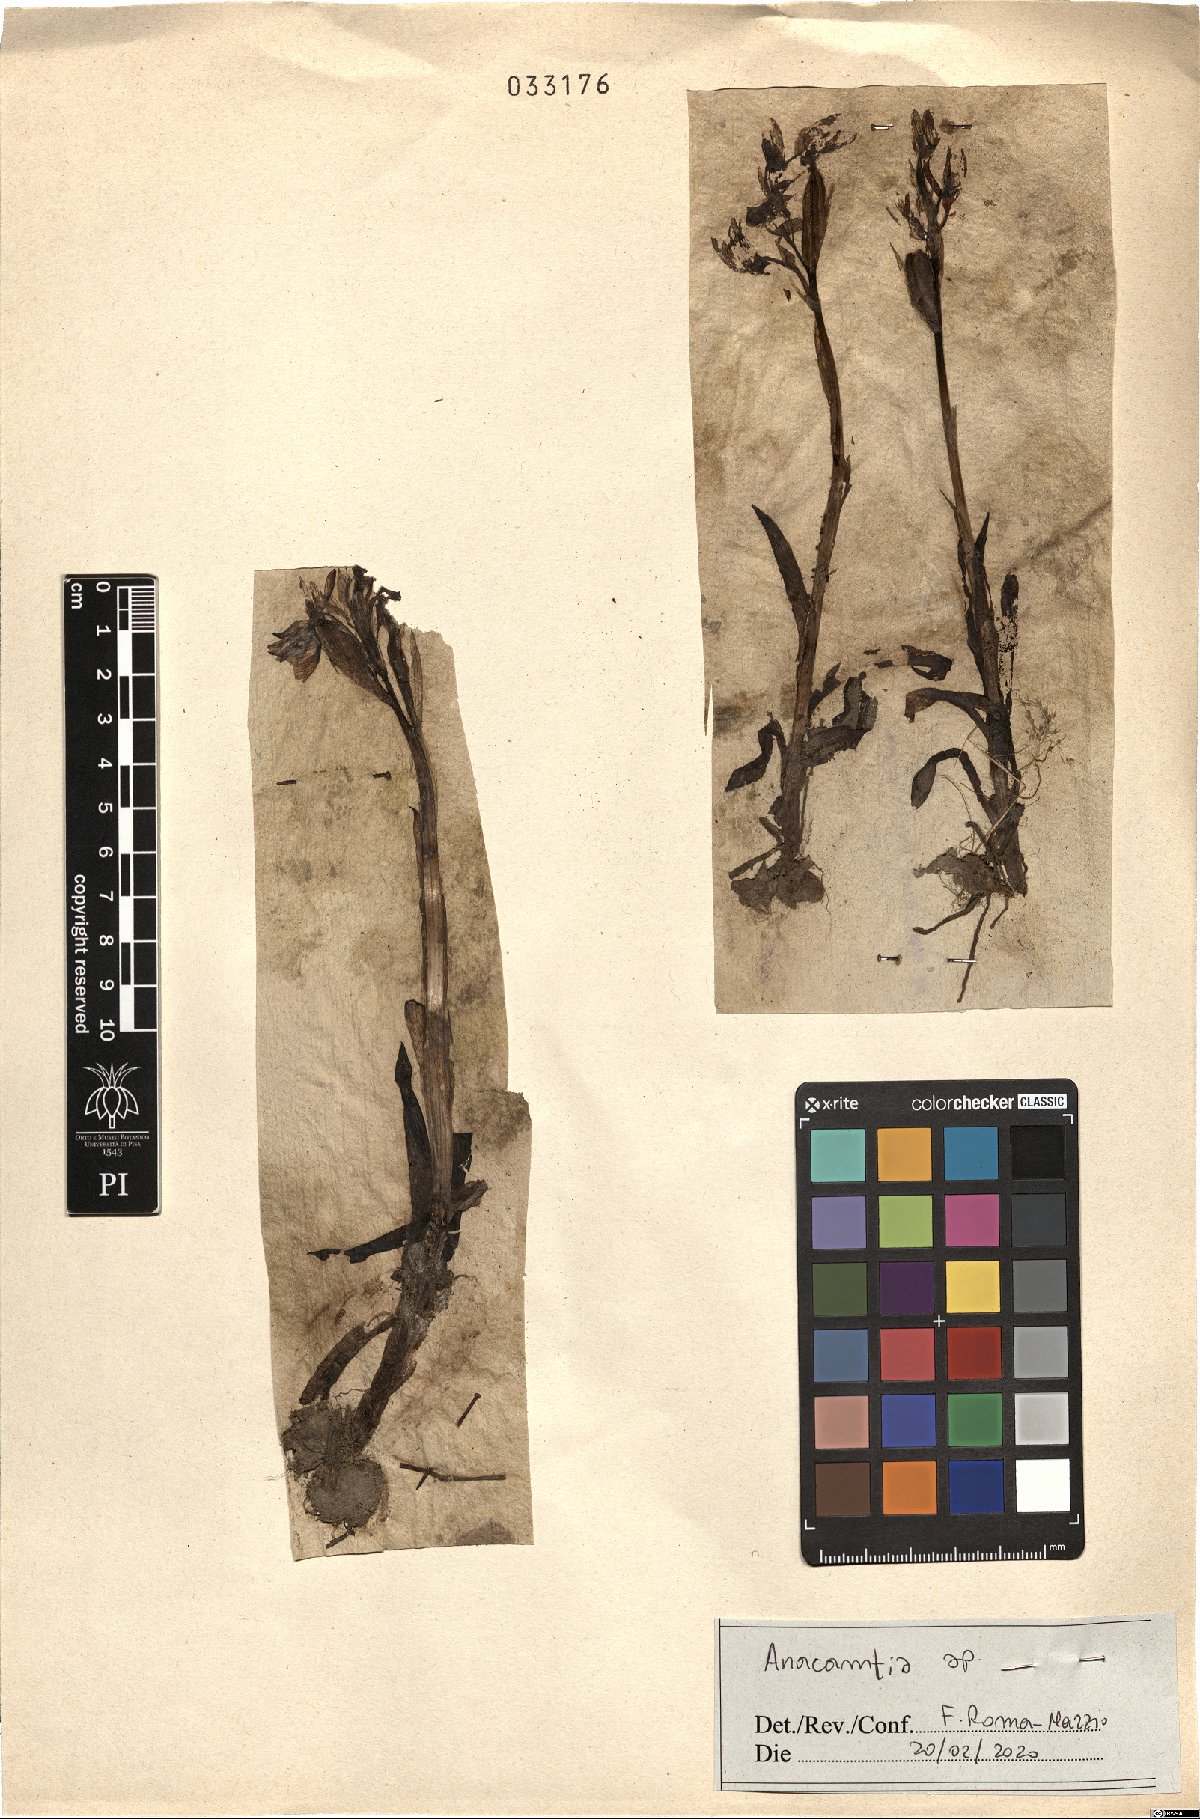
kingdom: Plantae
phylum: Tracheophyta
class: Liliopsida
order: Asparagales
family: Orchidaceae
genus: Anacamptis
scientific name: Anacamptis
